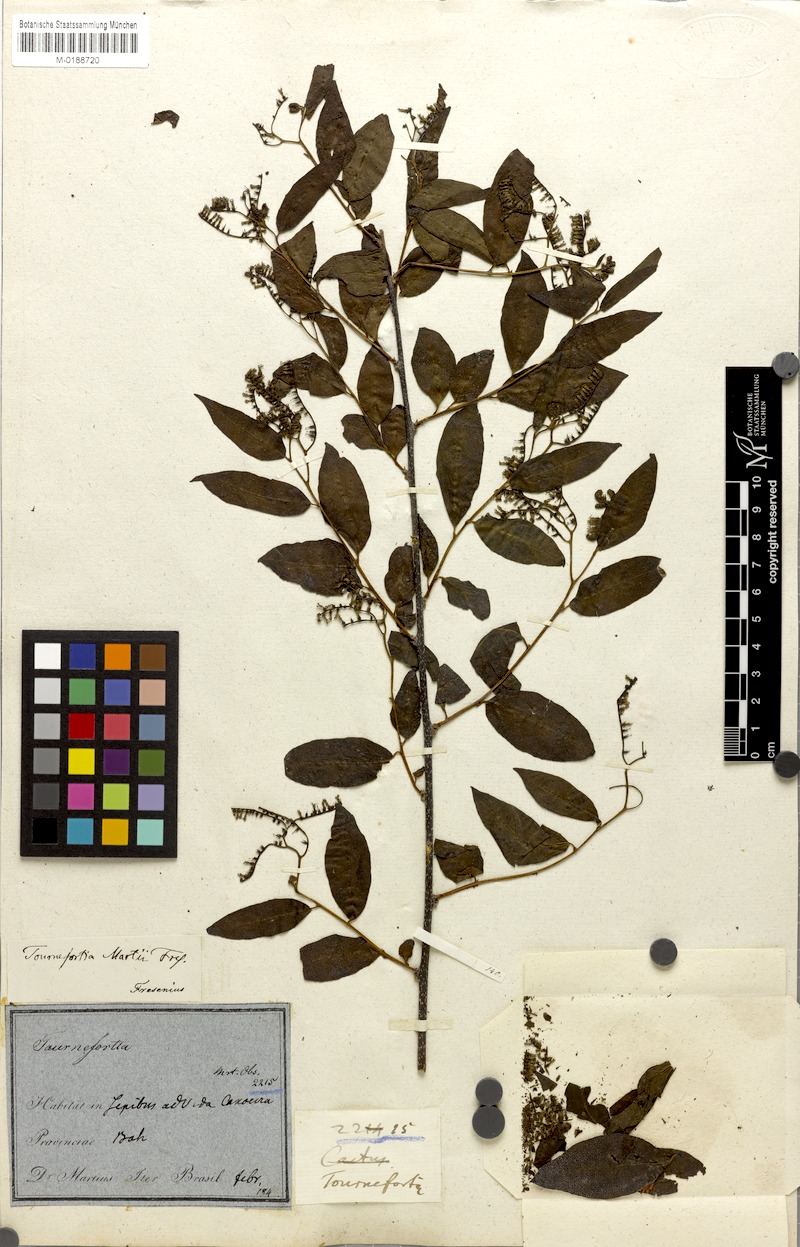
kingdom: Plantae
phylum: Tracheophyta
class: Magnoliopsida
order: Boraginales
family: Heliotropiaceae
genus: Myriopus
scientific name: Myriopus rubicundus
